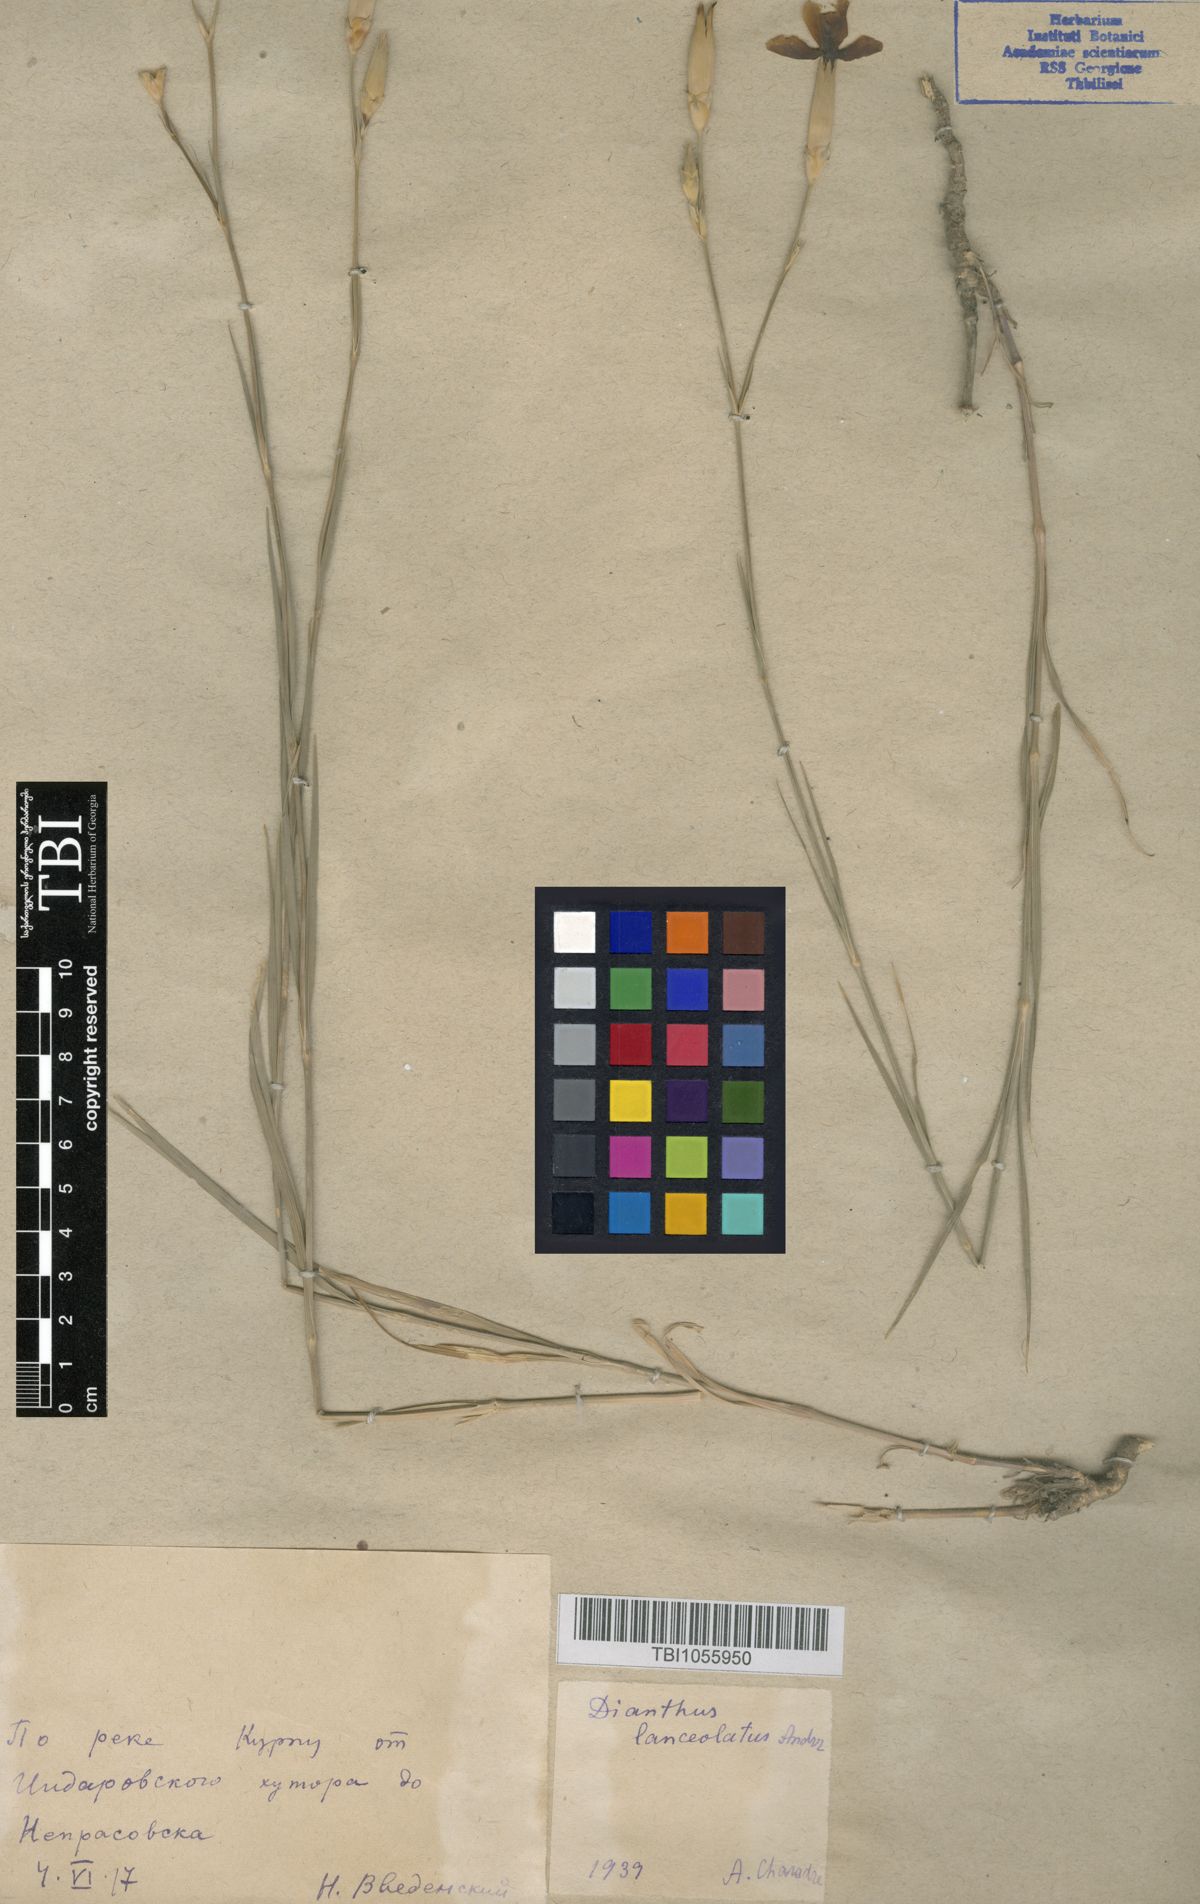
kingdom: Plantae
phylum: Tracheophyta
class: Magnoliopsida
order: Caryophyllales
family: Caryophyllaceae
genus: Dianthus
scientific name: Dianthus leptopetalus
